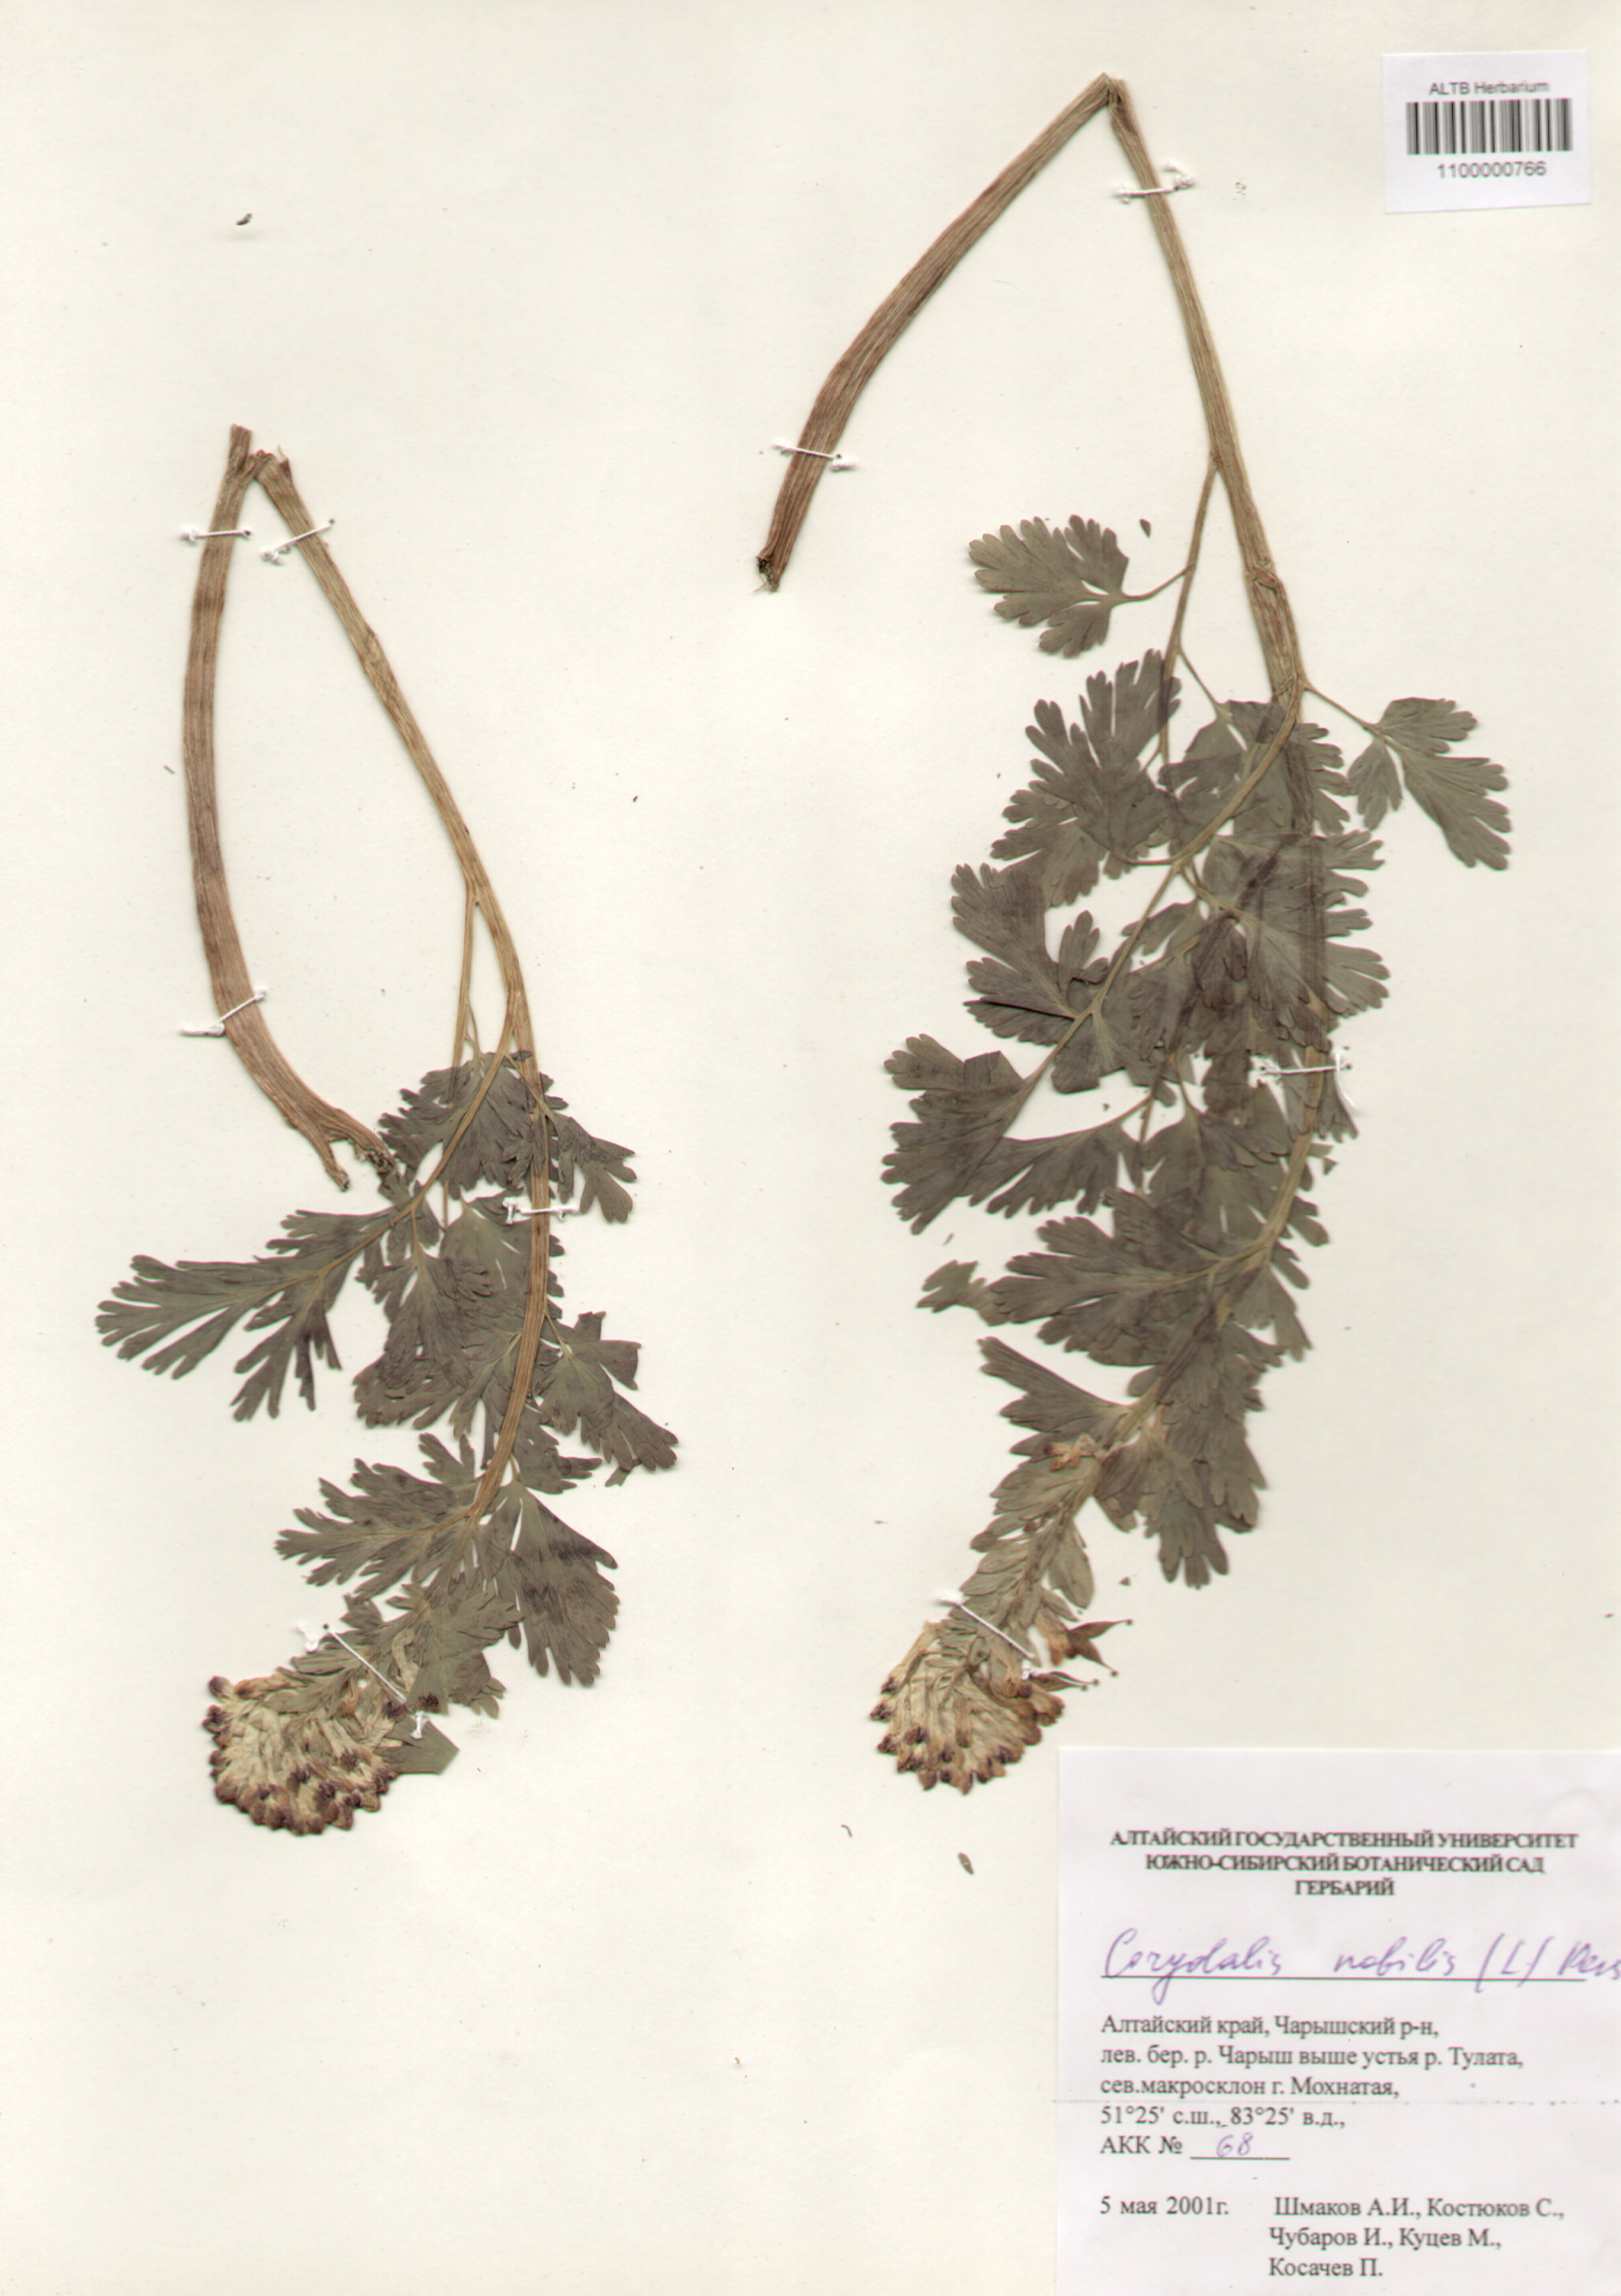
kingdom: Plantae
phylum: Tracheophyta
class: Magnoliopsida
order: Ranunculales
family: Papaveraceae
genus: Corydalis
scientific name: Corydalis nobilis
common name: Siberian corydalis
